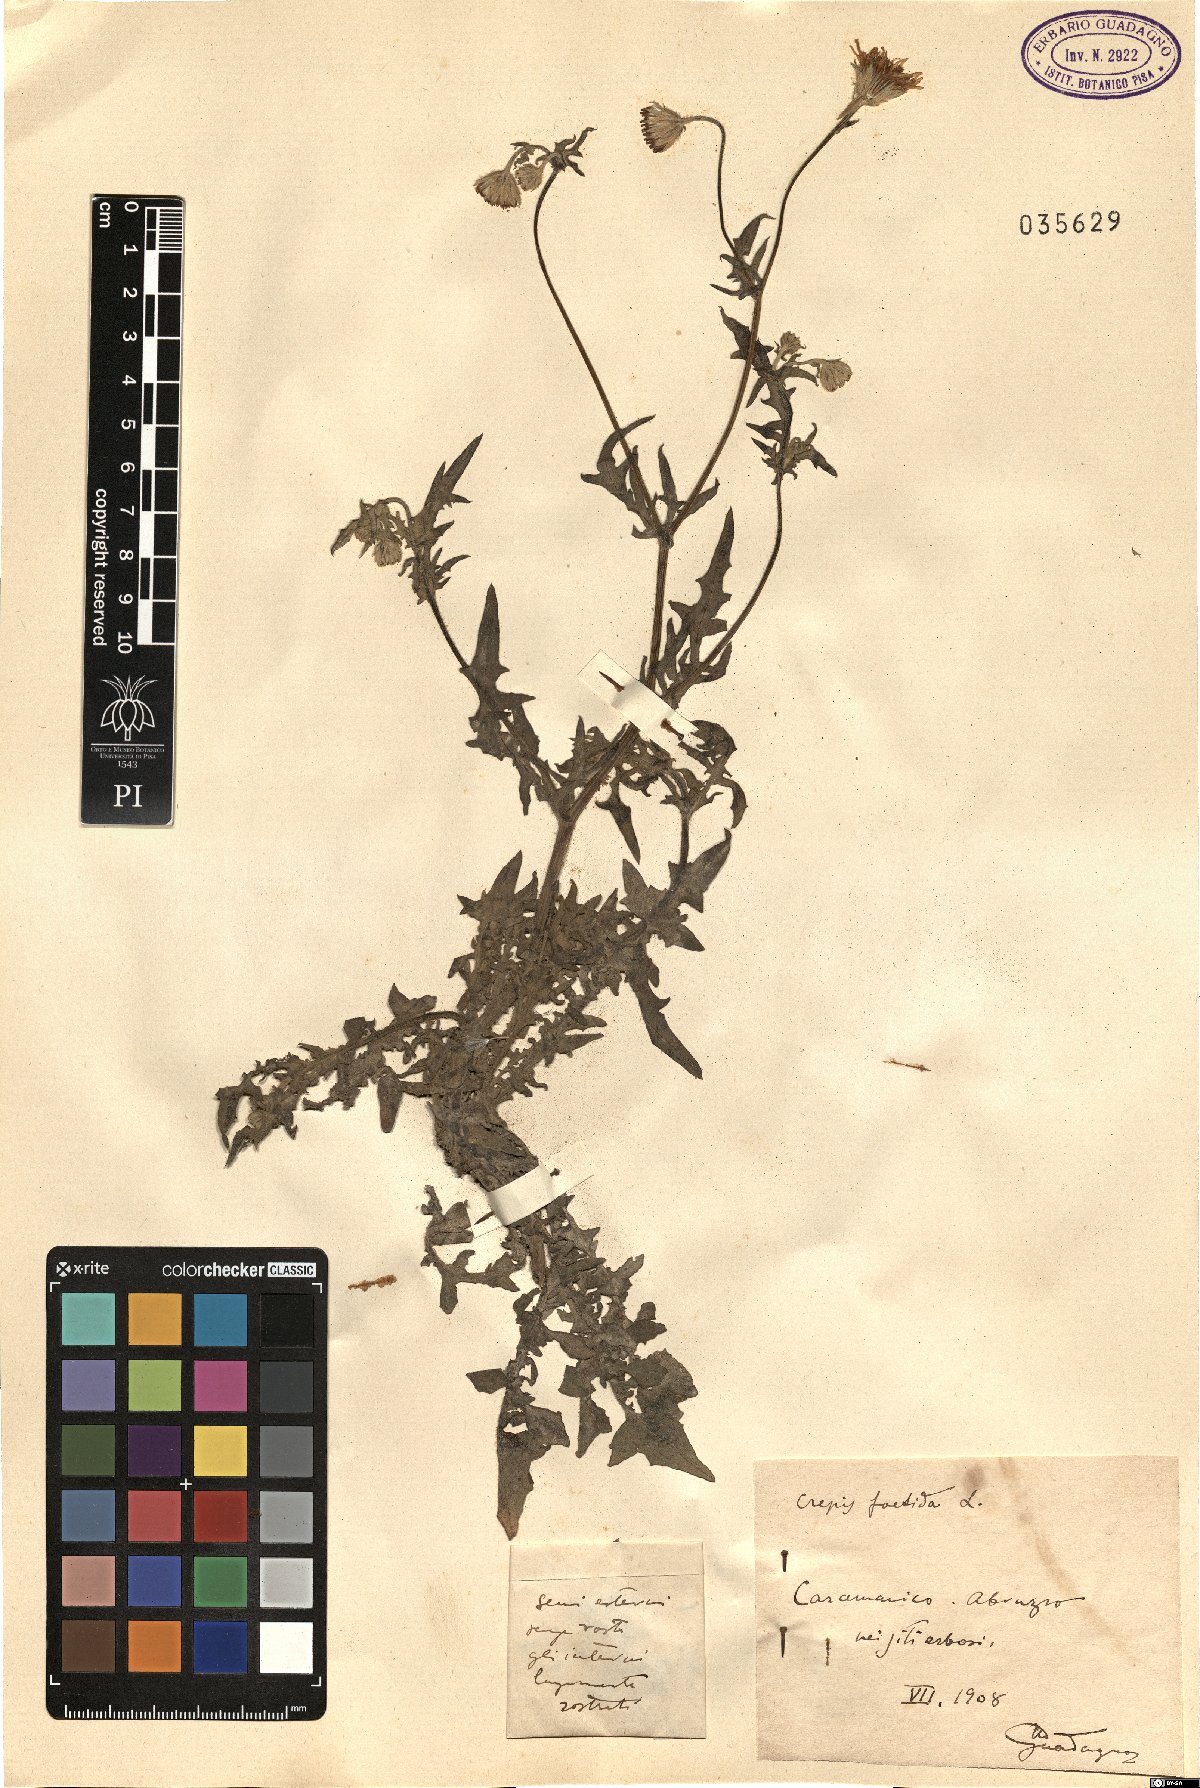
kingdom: Plantae
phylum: Tracheophyta
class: Magnoliopsida
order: Asterales
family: Asteraceae
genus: Crepis
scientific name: Crepis foetida
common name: Stinking hawk's-beard
